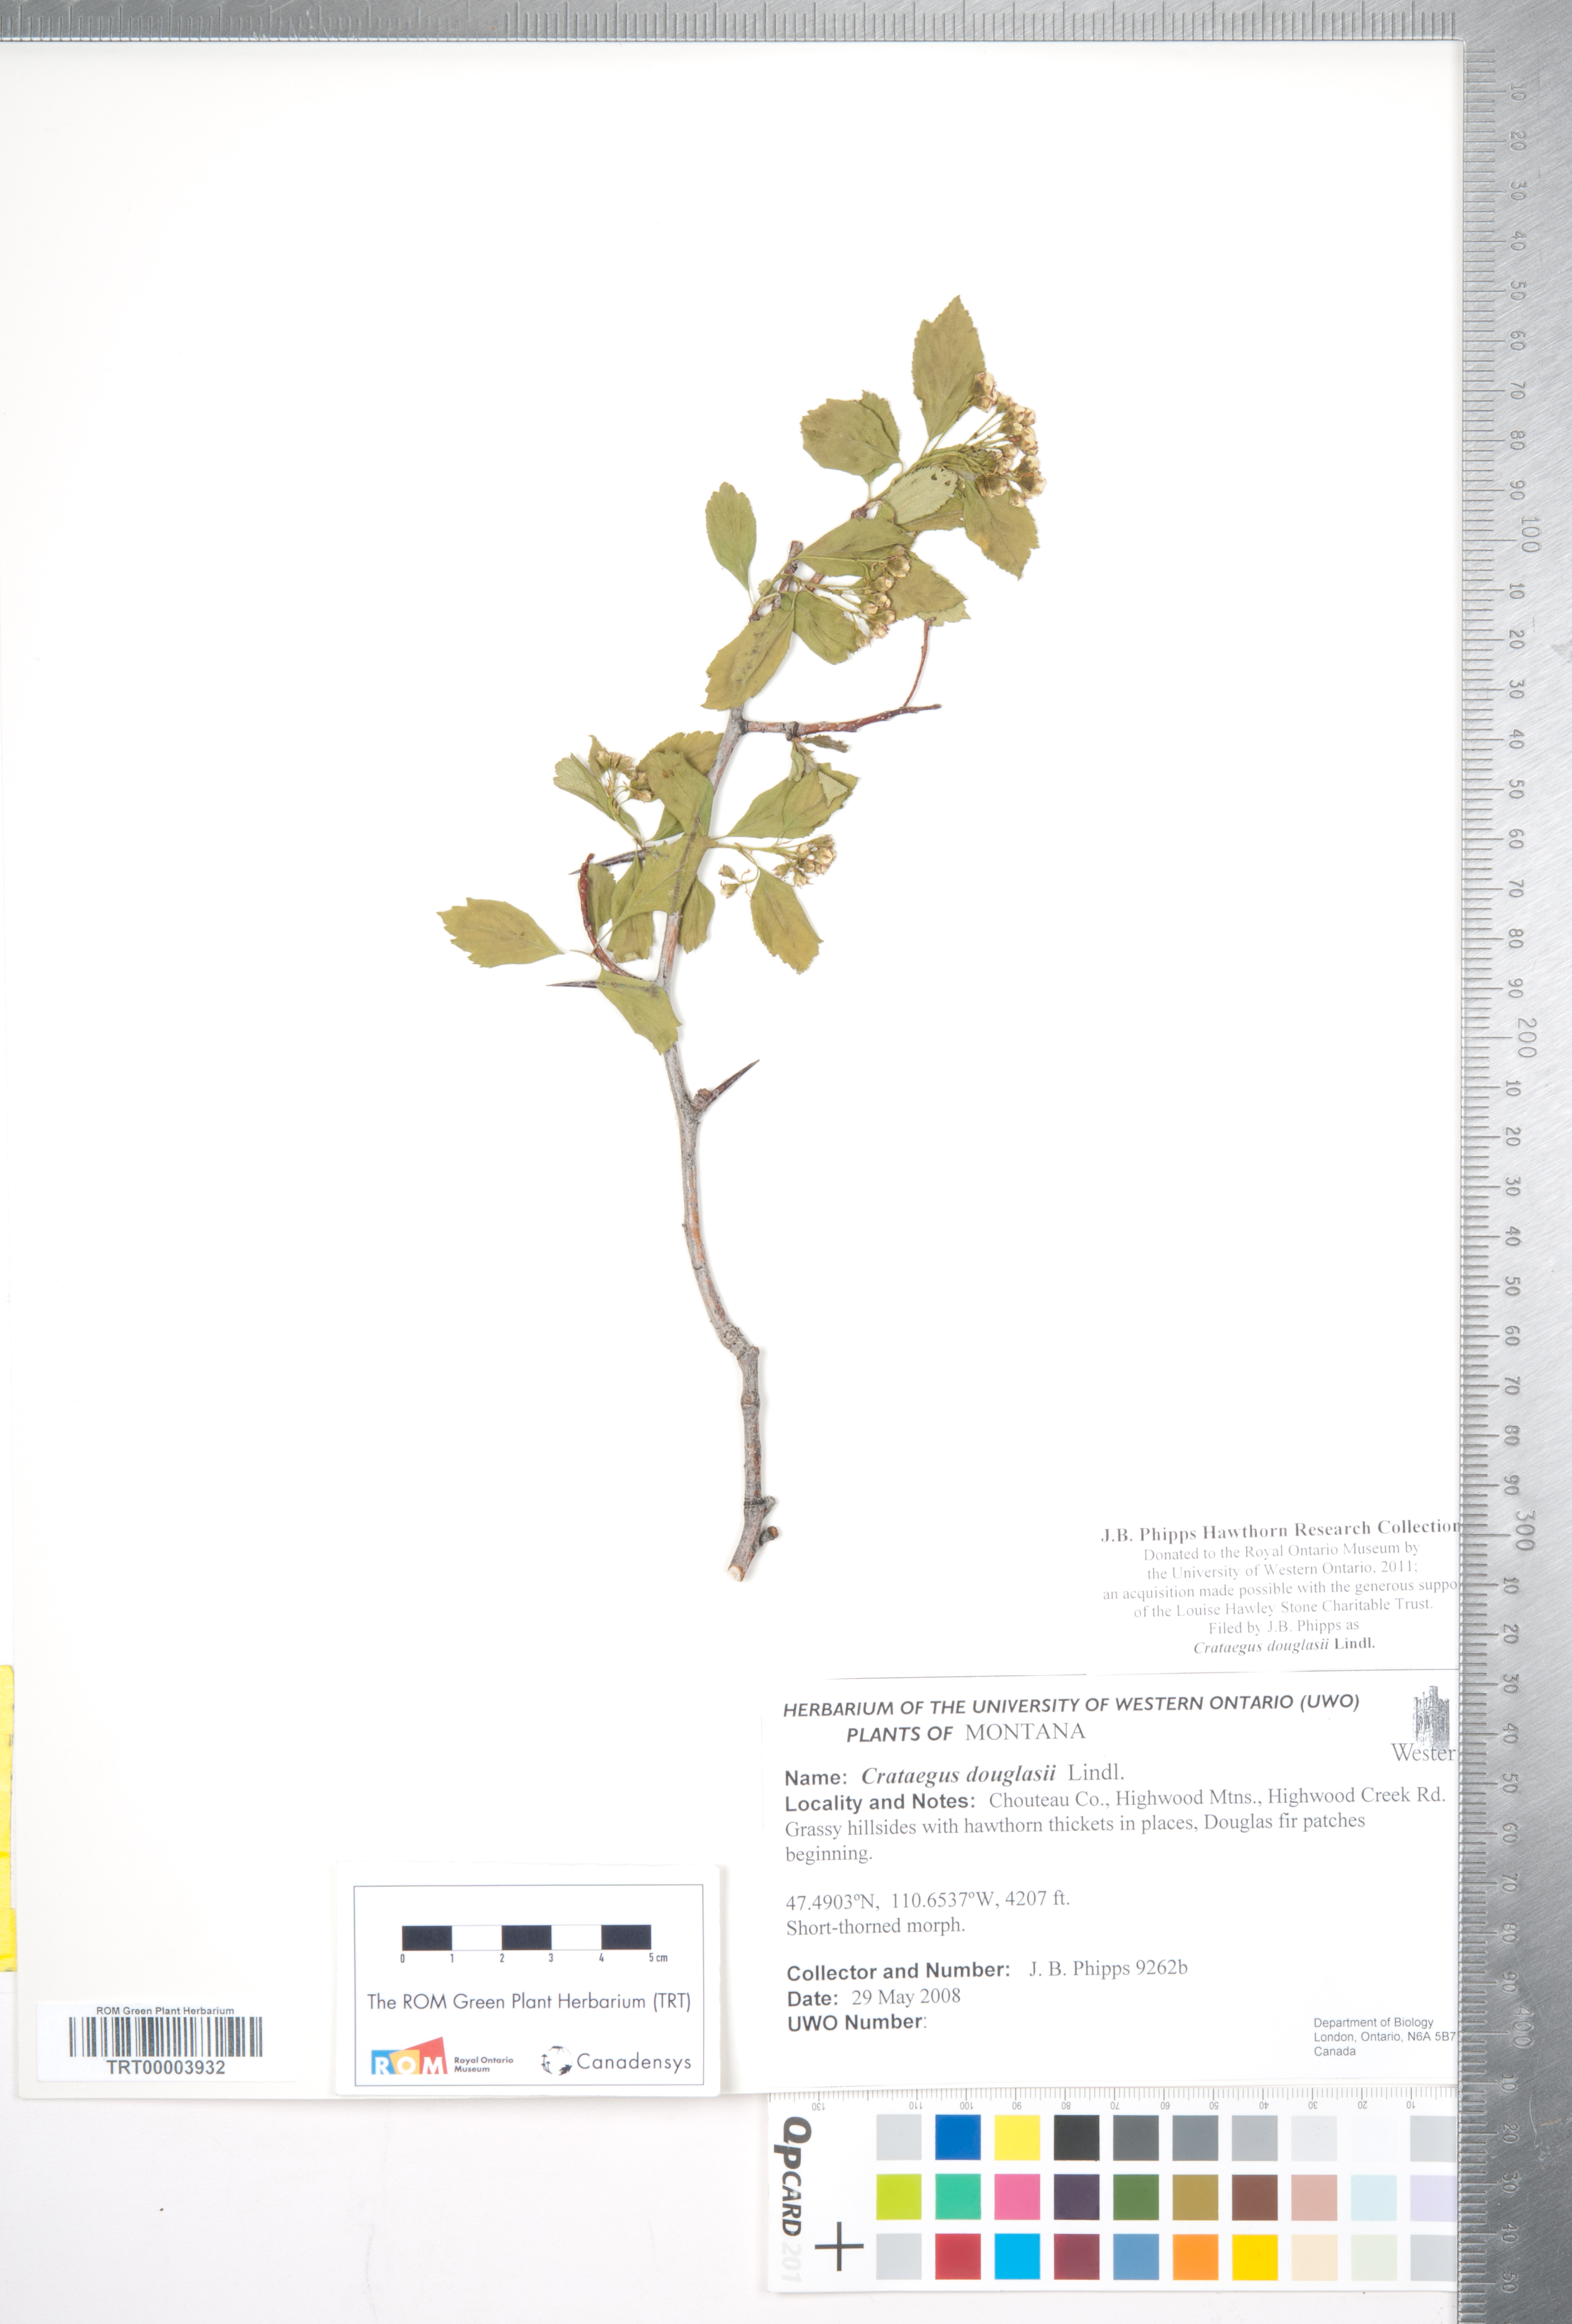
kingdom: Plantae
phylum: Tracheophyta
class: Magnoliopsida
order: Rosales
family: Rosaceae
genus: Crataegus
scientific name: Crataegus douglasii
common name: Black hawthorn
